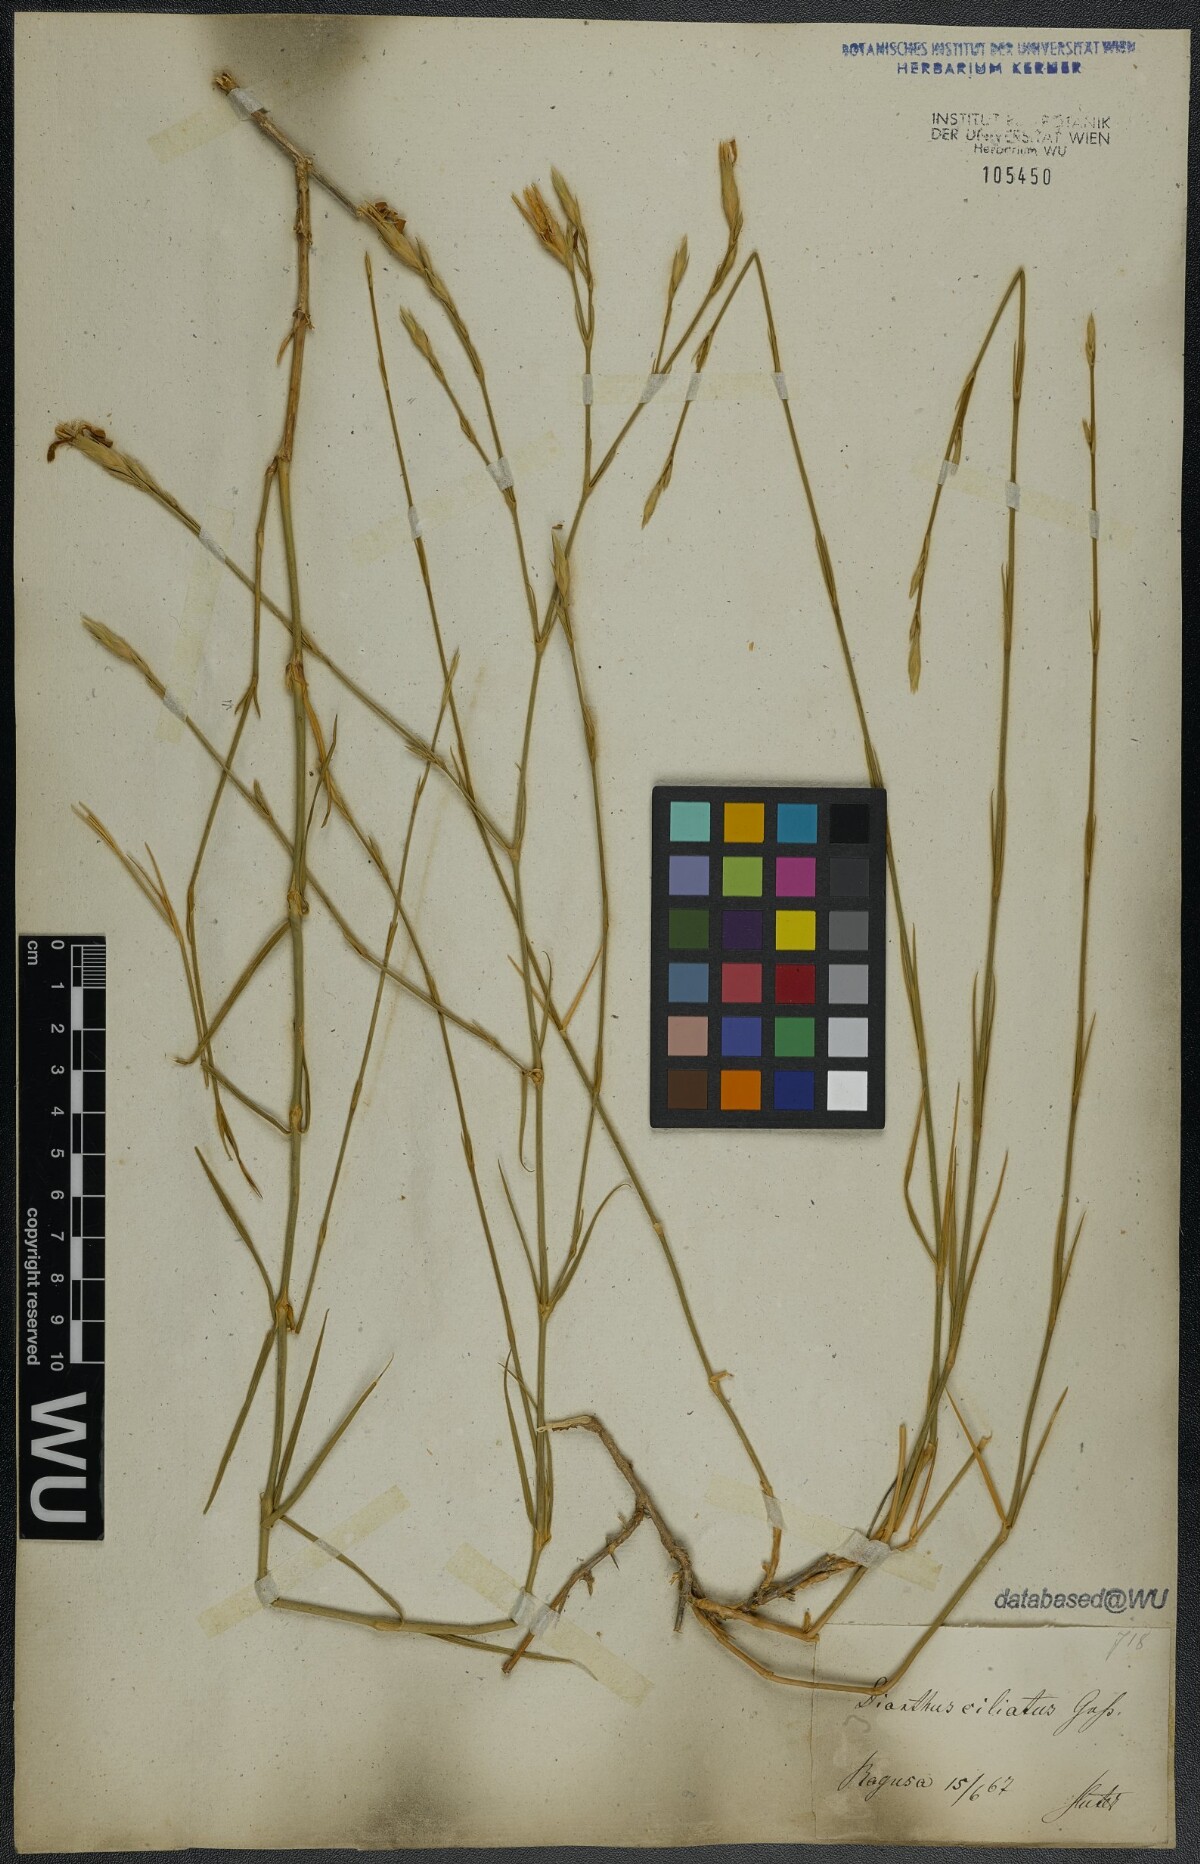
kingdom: Plantae
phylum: Tracheophyta
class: Magnoliopsida
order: Caryophyllales
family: Caryophyllaceae
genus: Dianthus
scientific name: Dianthus ciliatus
